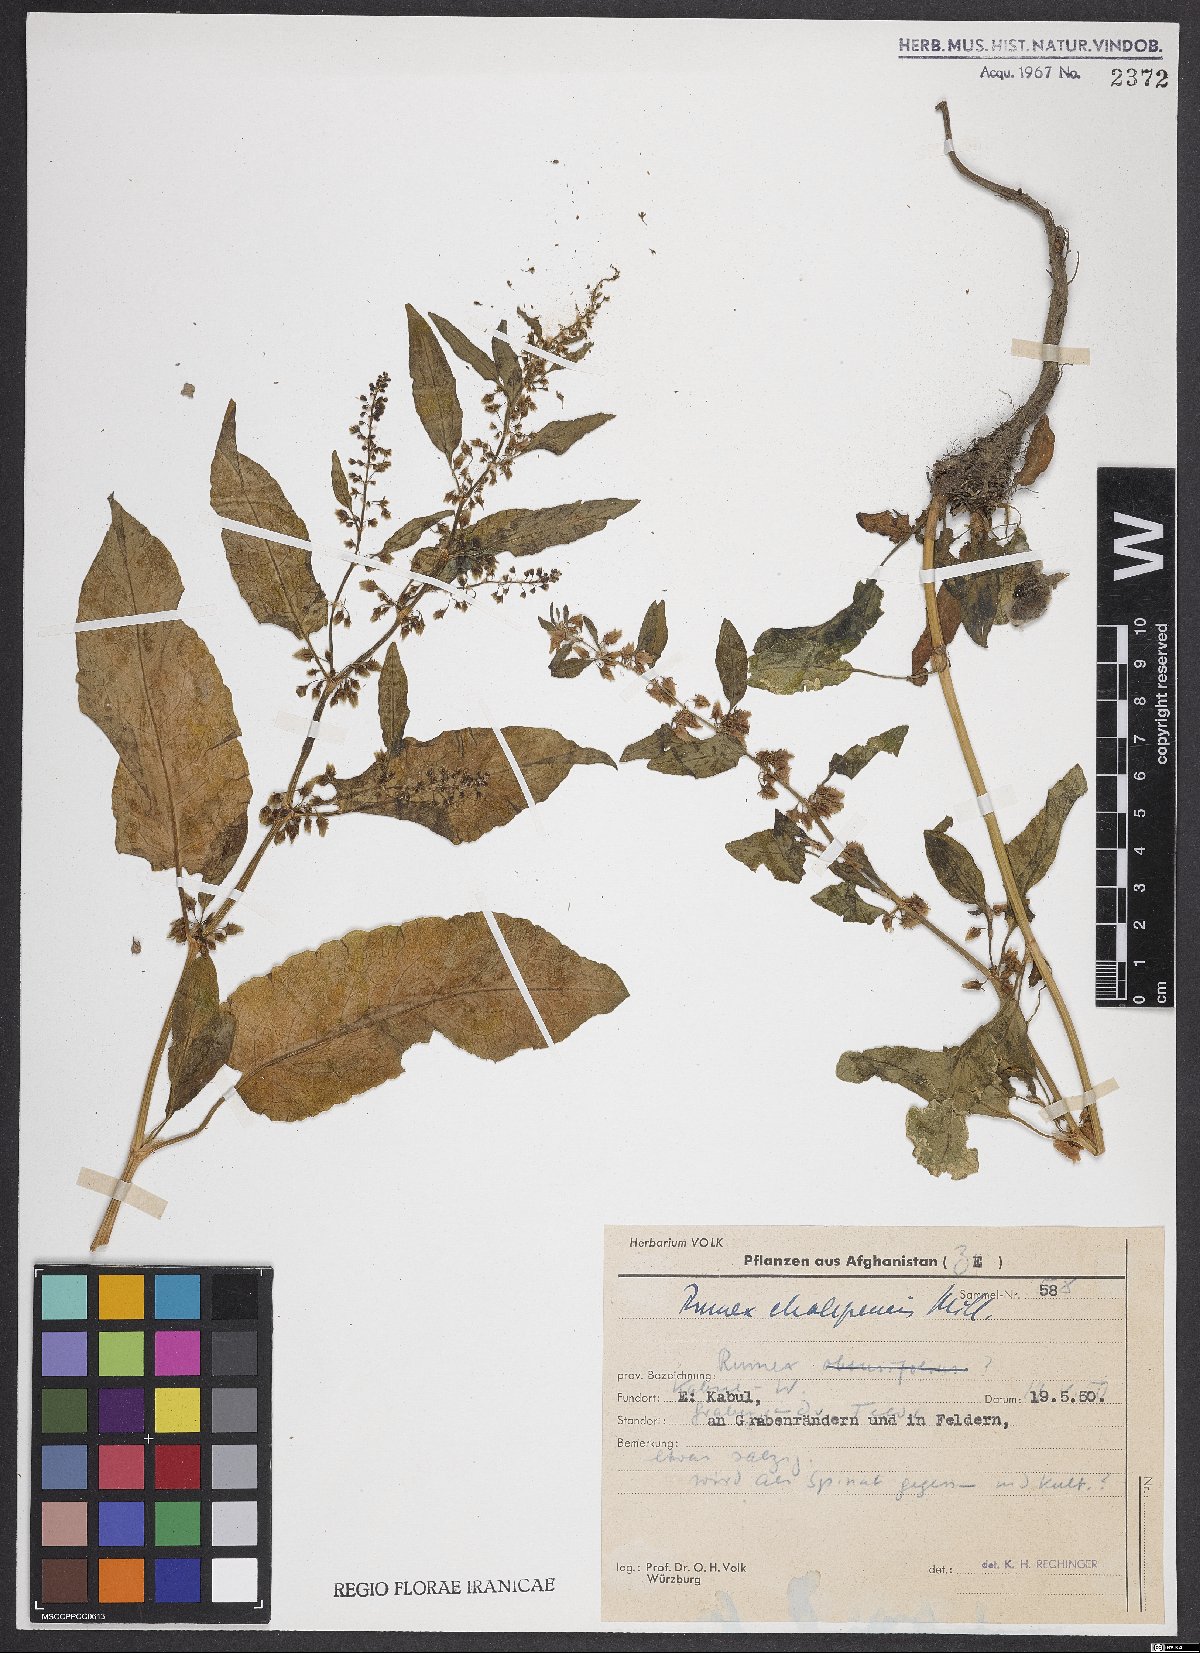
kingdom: Plantae
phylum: Tracheophyta
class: Magnoliopsida
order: Caryophyllales
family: Polygonaceae
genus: Rumex
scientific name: Rumex chalepensis
